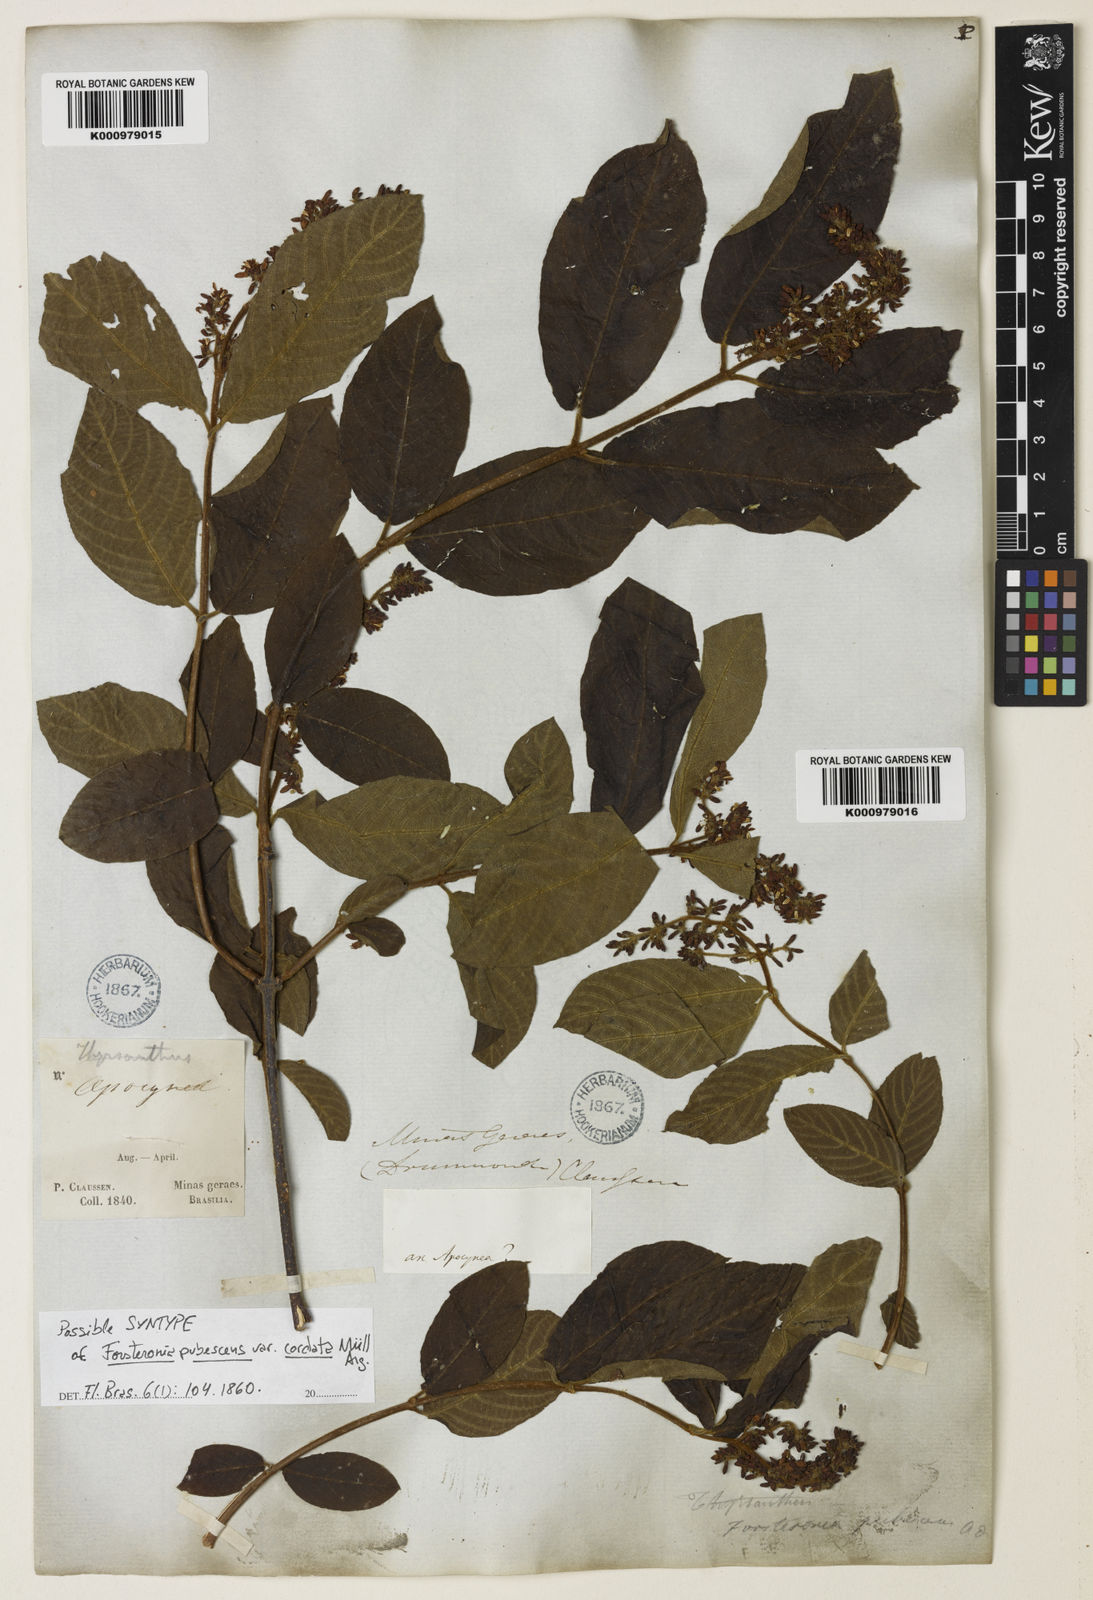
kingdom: Plantae
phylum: Tracheophyta
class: Magnoliopsida
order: Gentianales
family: Apocynaceae
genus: Forsteronia
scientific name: Forsteronia
